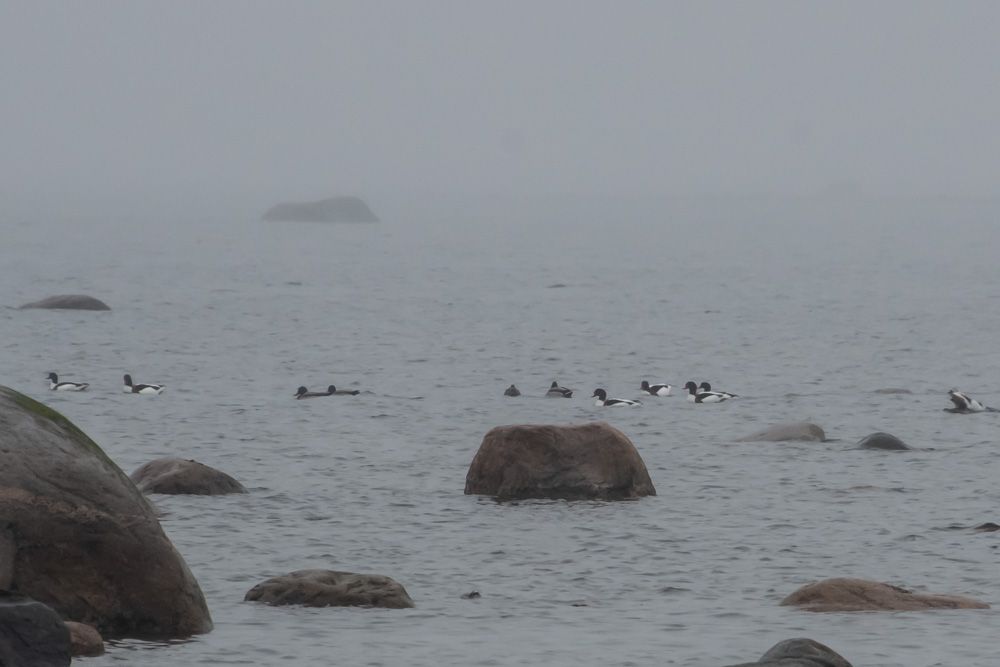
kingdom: Animalia
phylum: Chordata
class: Aves
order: Anseriformes
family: Anatidae
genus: Tadorna
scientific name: Tadorna tadorna
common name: Common shelduck
